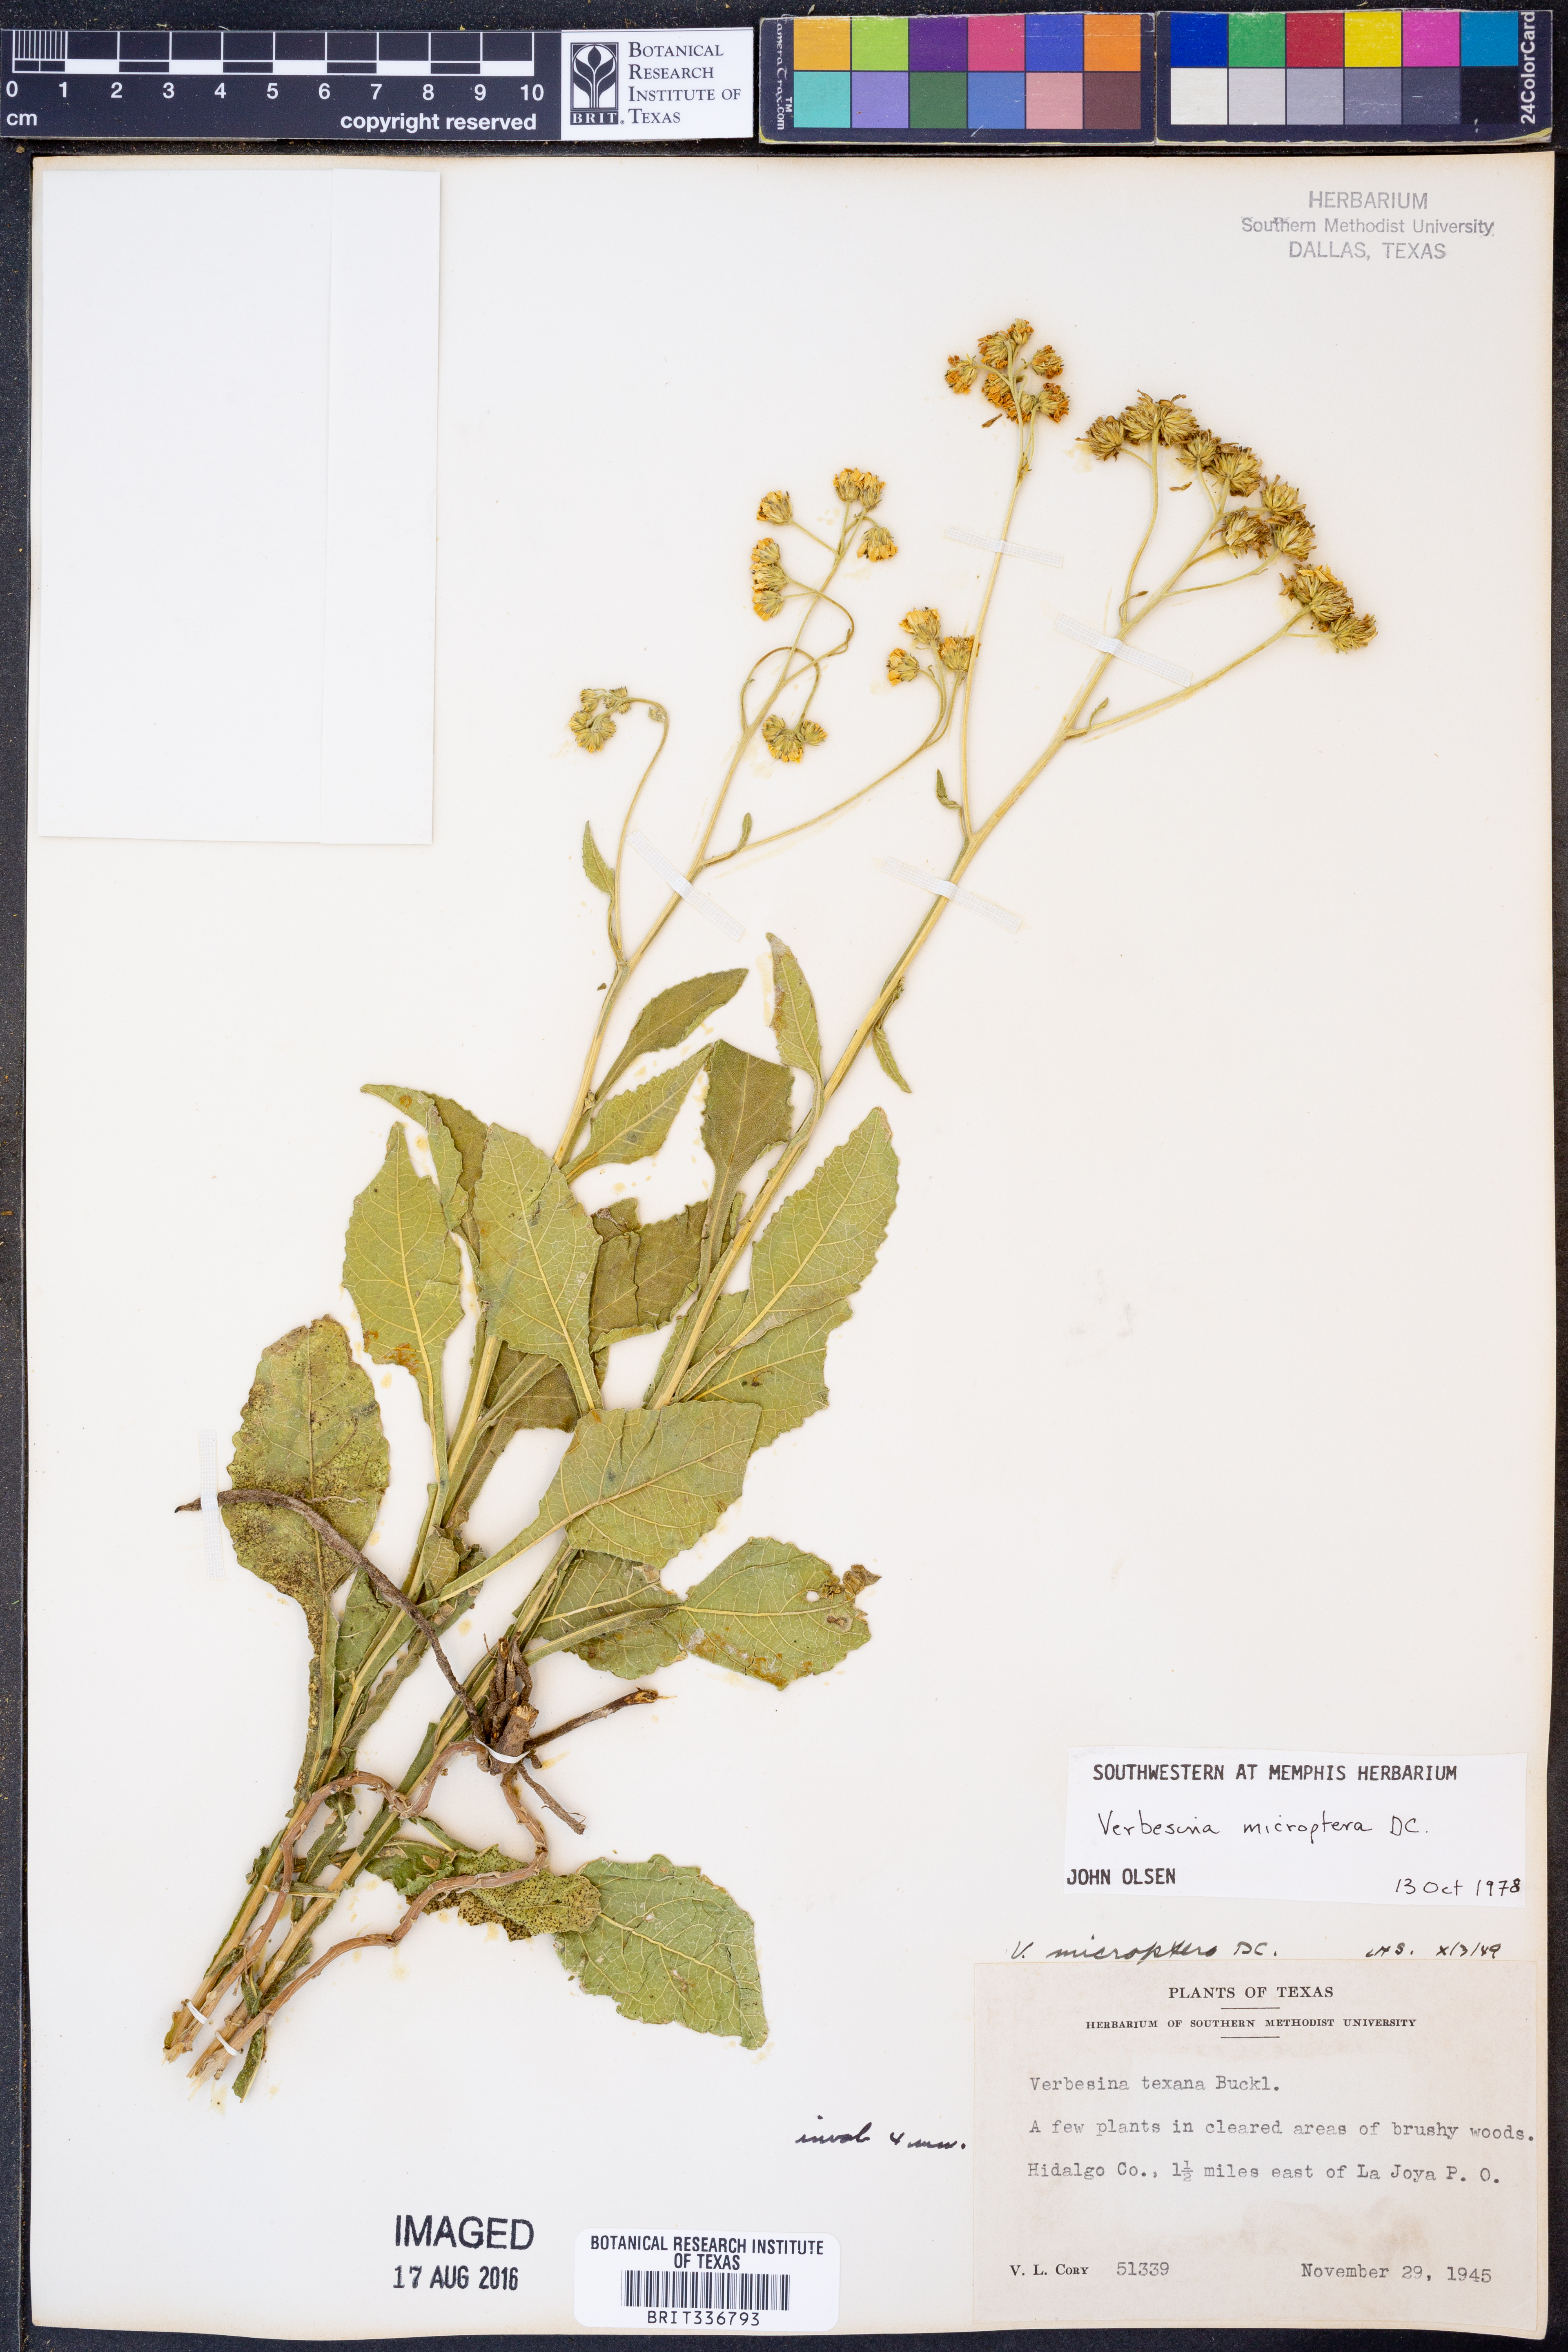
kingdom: Plantae
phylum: Tracheophyta
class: Magnoliopsida
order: Asterales
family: Asteraceae
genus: Verbesina
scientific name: Verbesina encelioides
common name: Golden crownbeard
